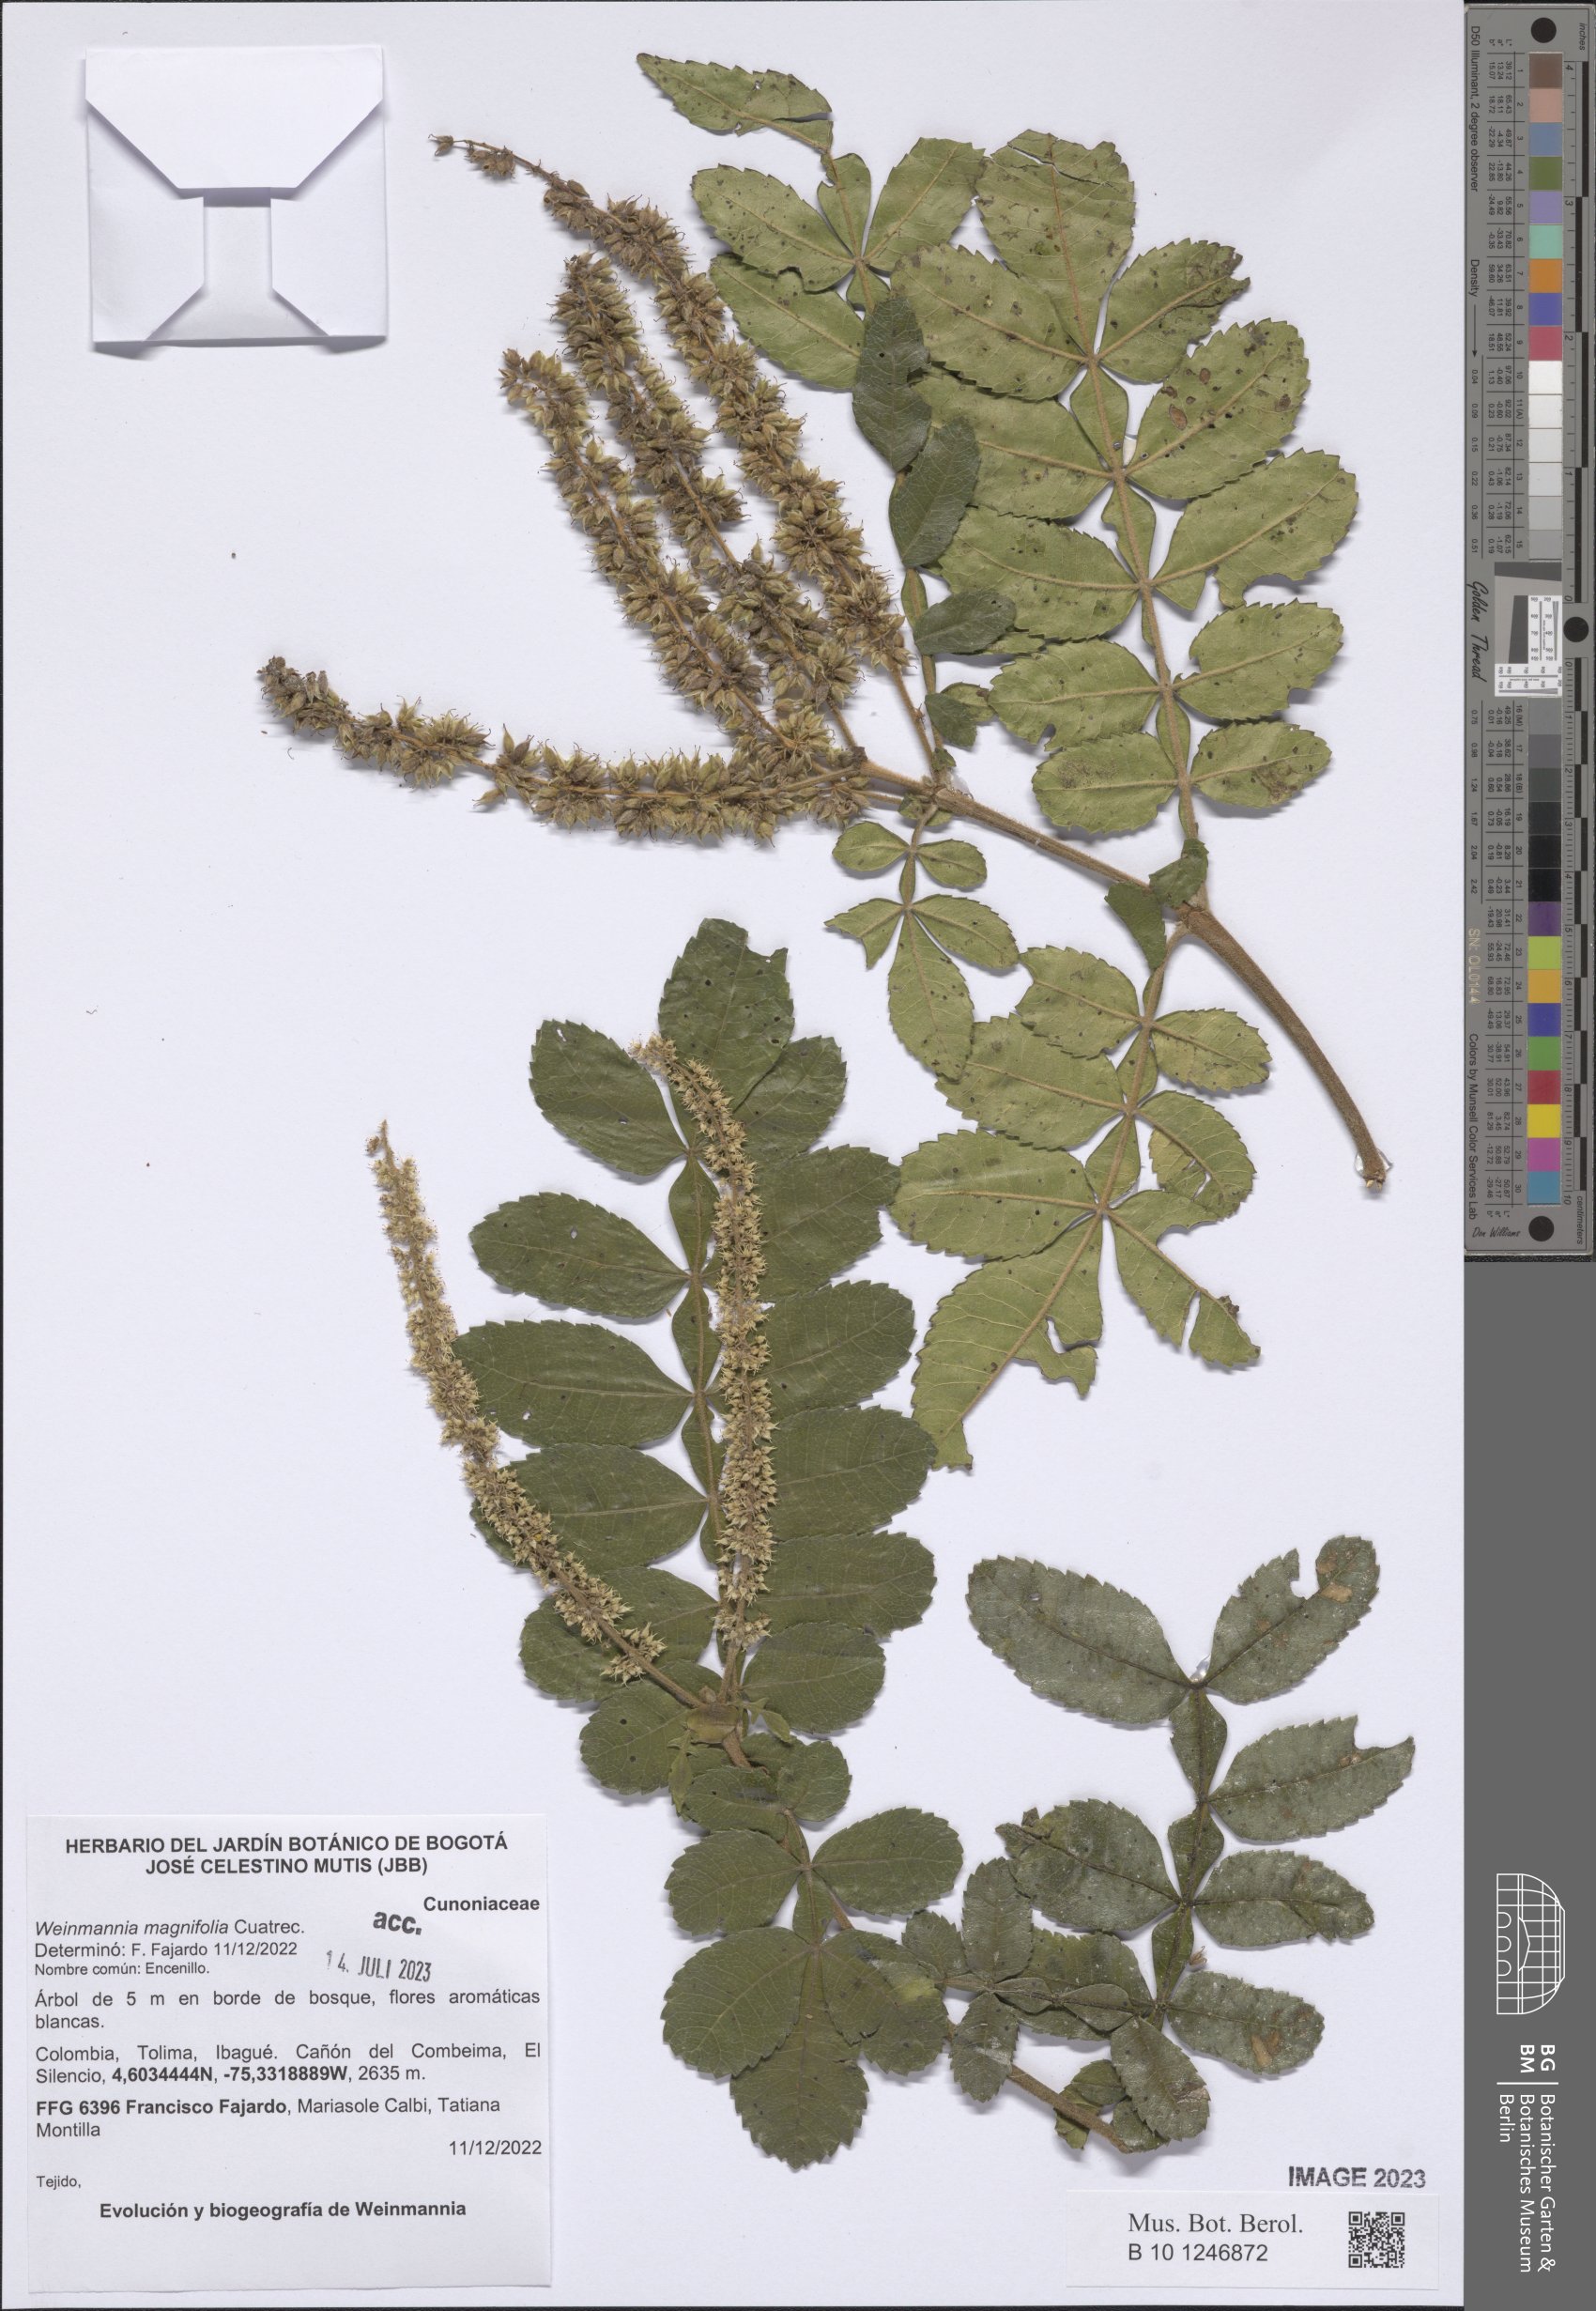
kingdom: Plantae
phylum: Tracheophyta
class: Magnoliopsida
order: Oxalidales
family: Cunoniaceae
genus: Weinmannia
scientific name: Weinmannia magnifolia
